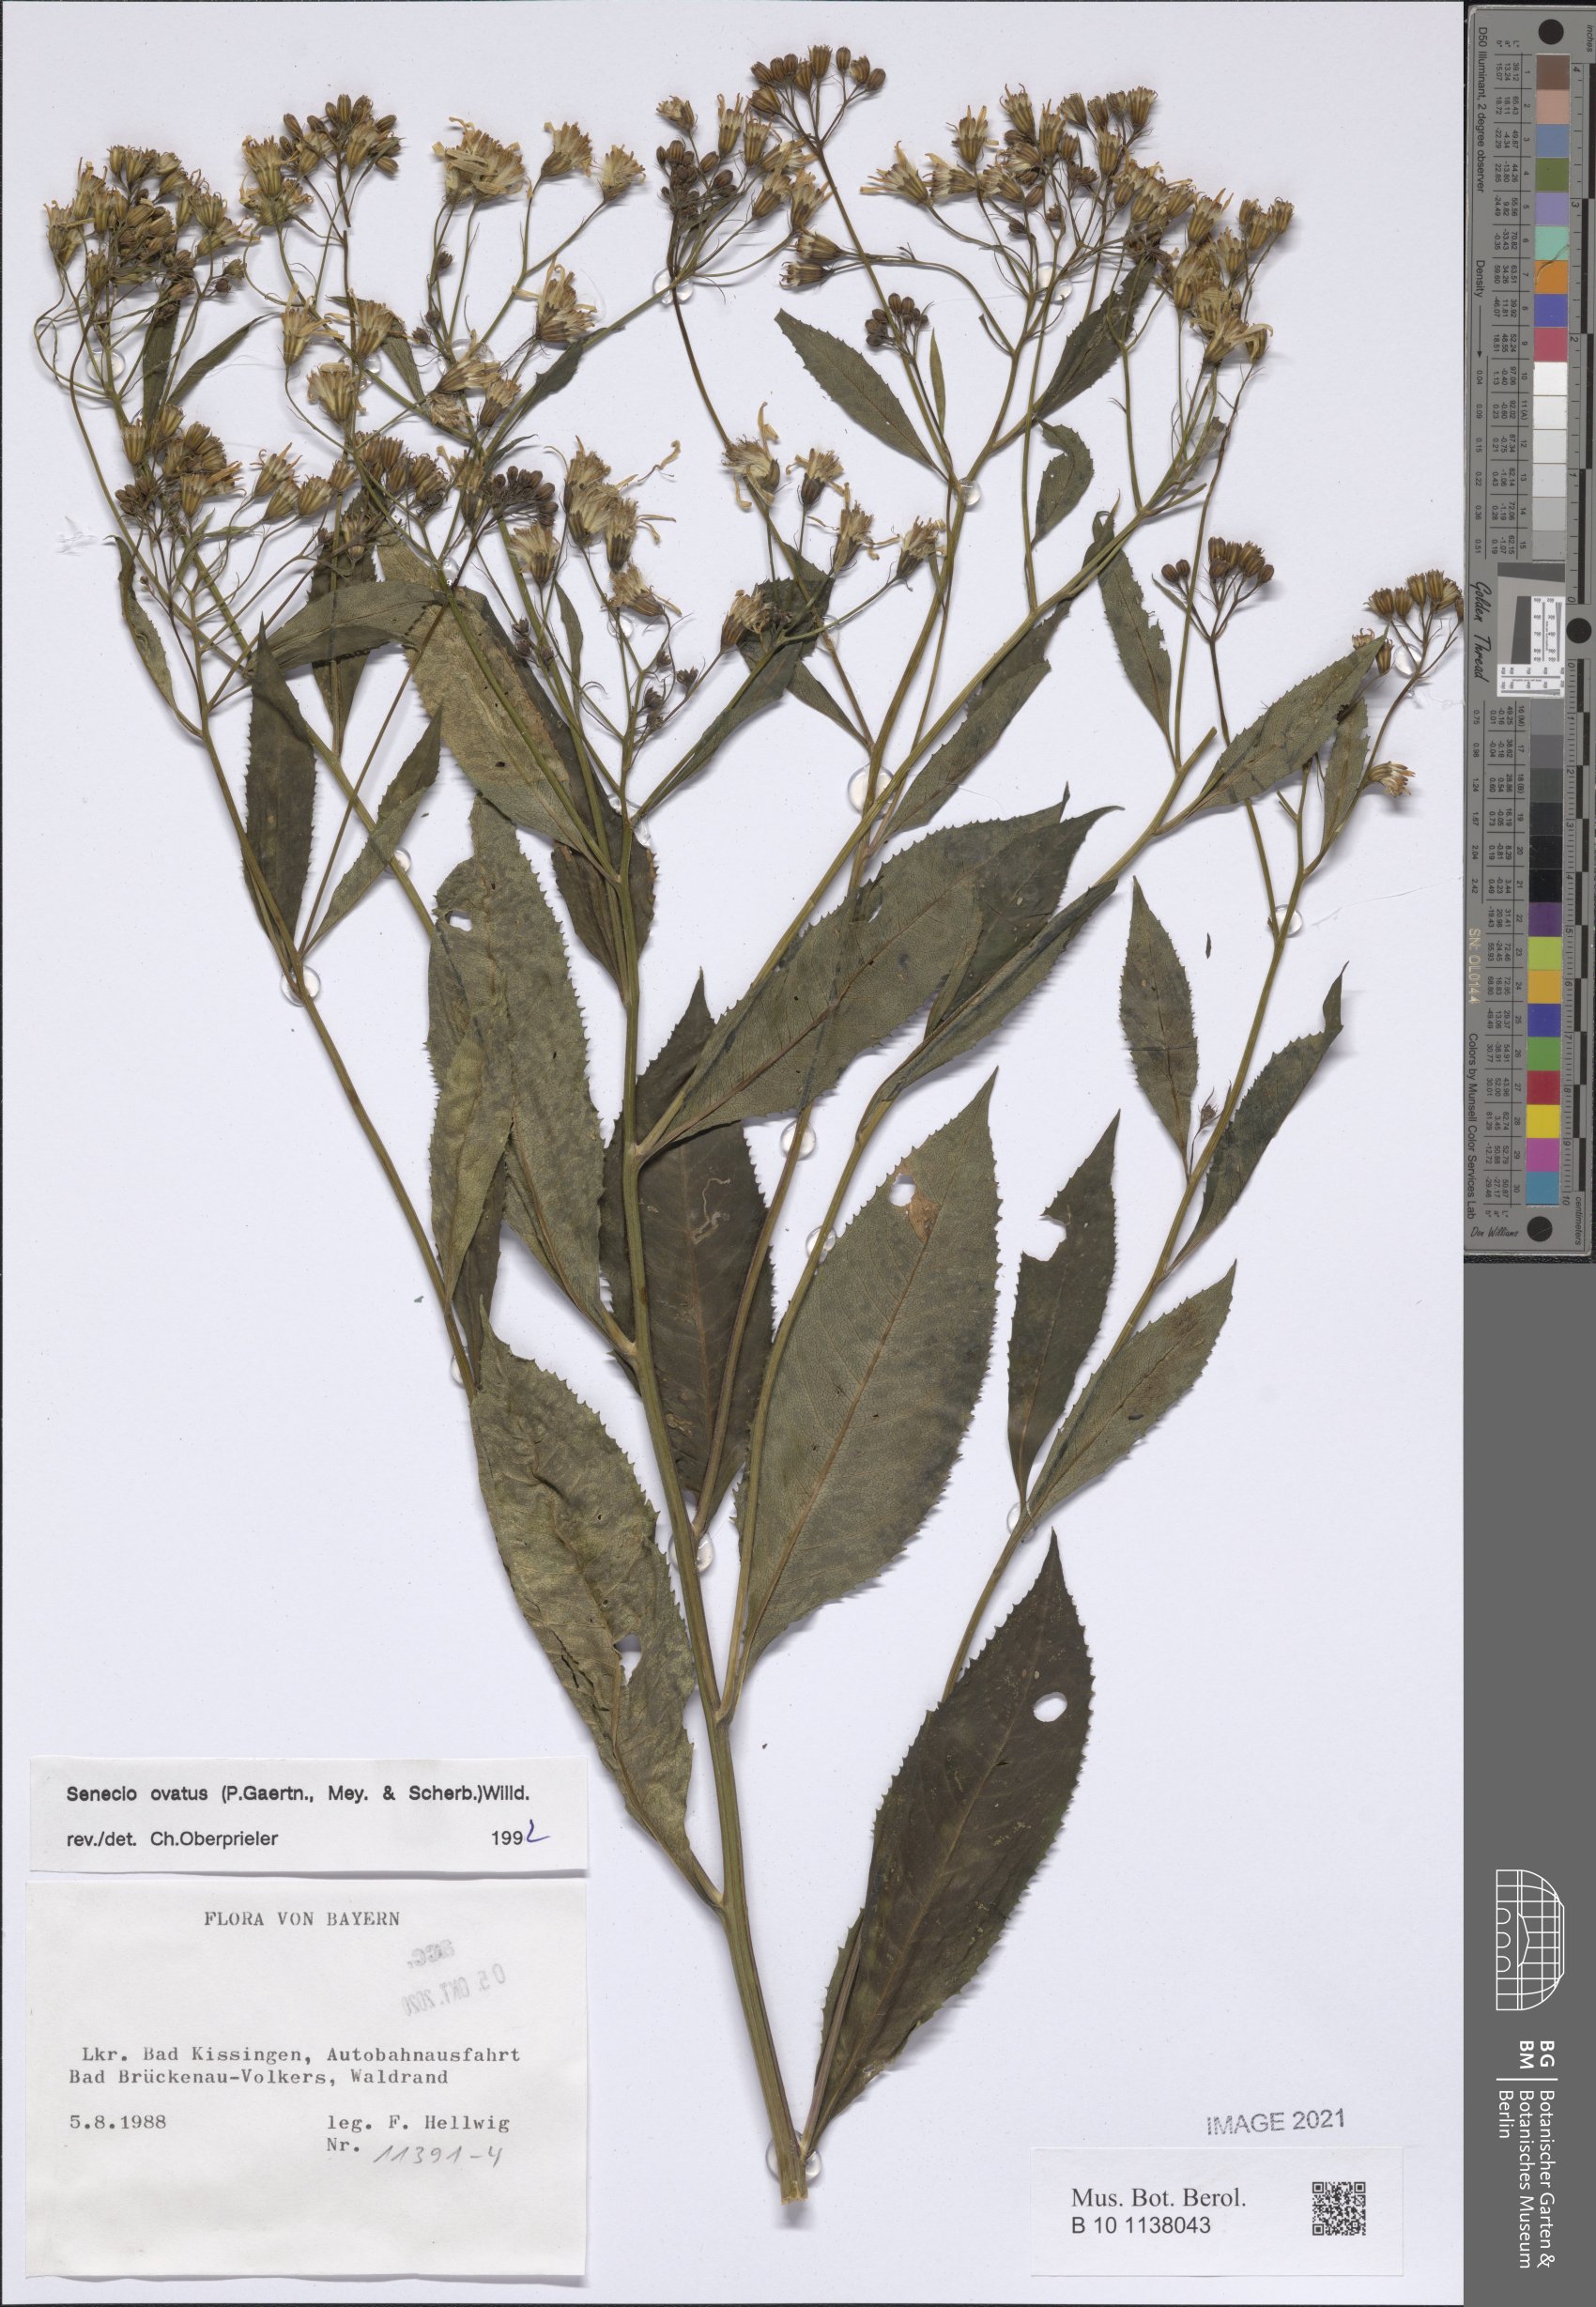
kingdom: Plantae
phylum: Tracheophyta
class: Magnoliopsida
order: Asterales
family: Asteraceae
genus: Senecio
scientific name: Senecio ovatus
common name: Wood ragwort
